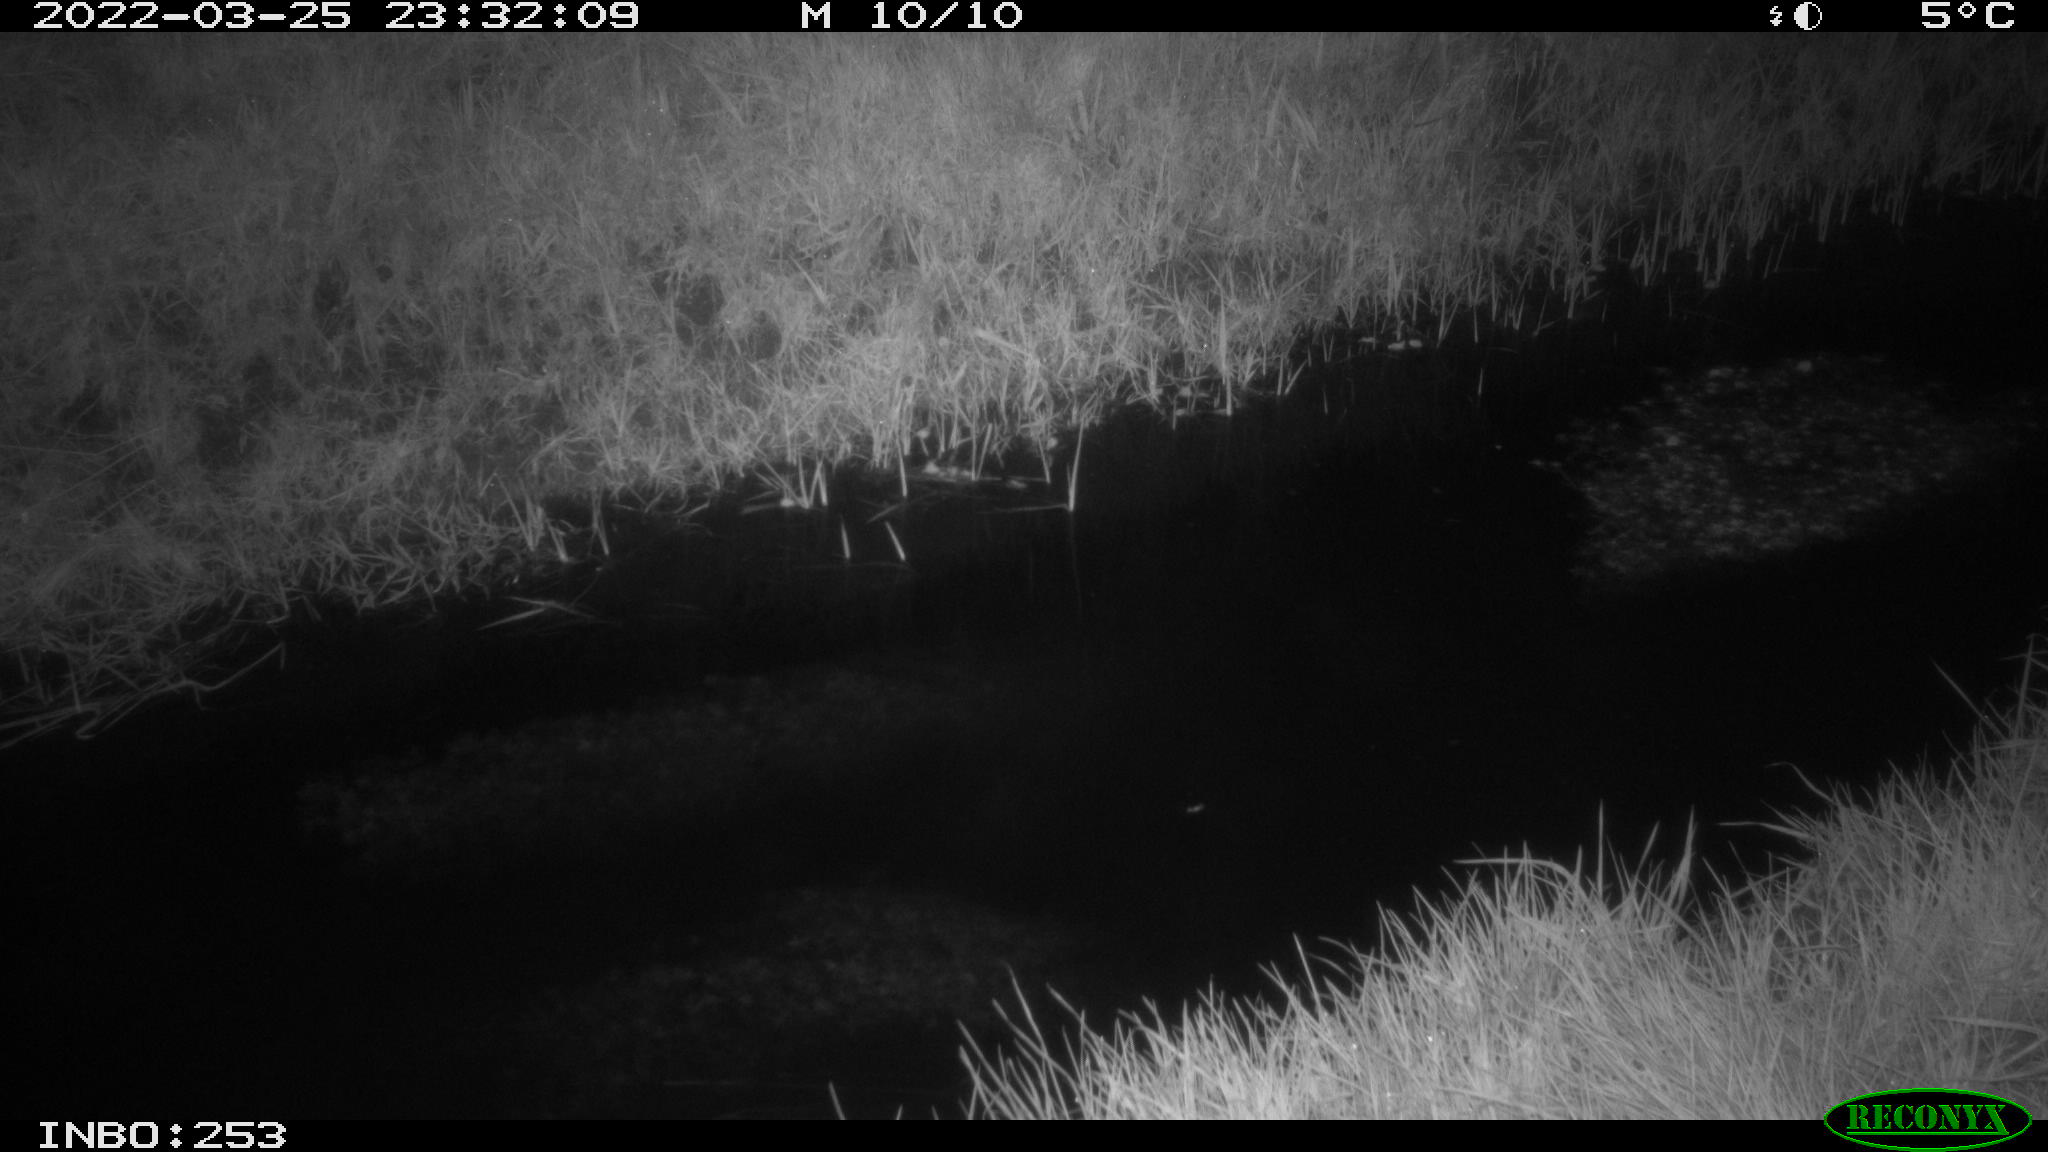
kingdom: Animalia
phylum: Chordata
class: Aves
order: Anseriformes
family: Anatidae
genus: Anas
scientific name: Anas platyrhynchos
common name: Mallard
